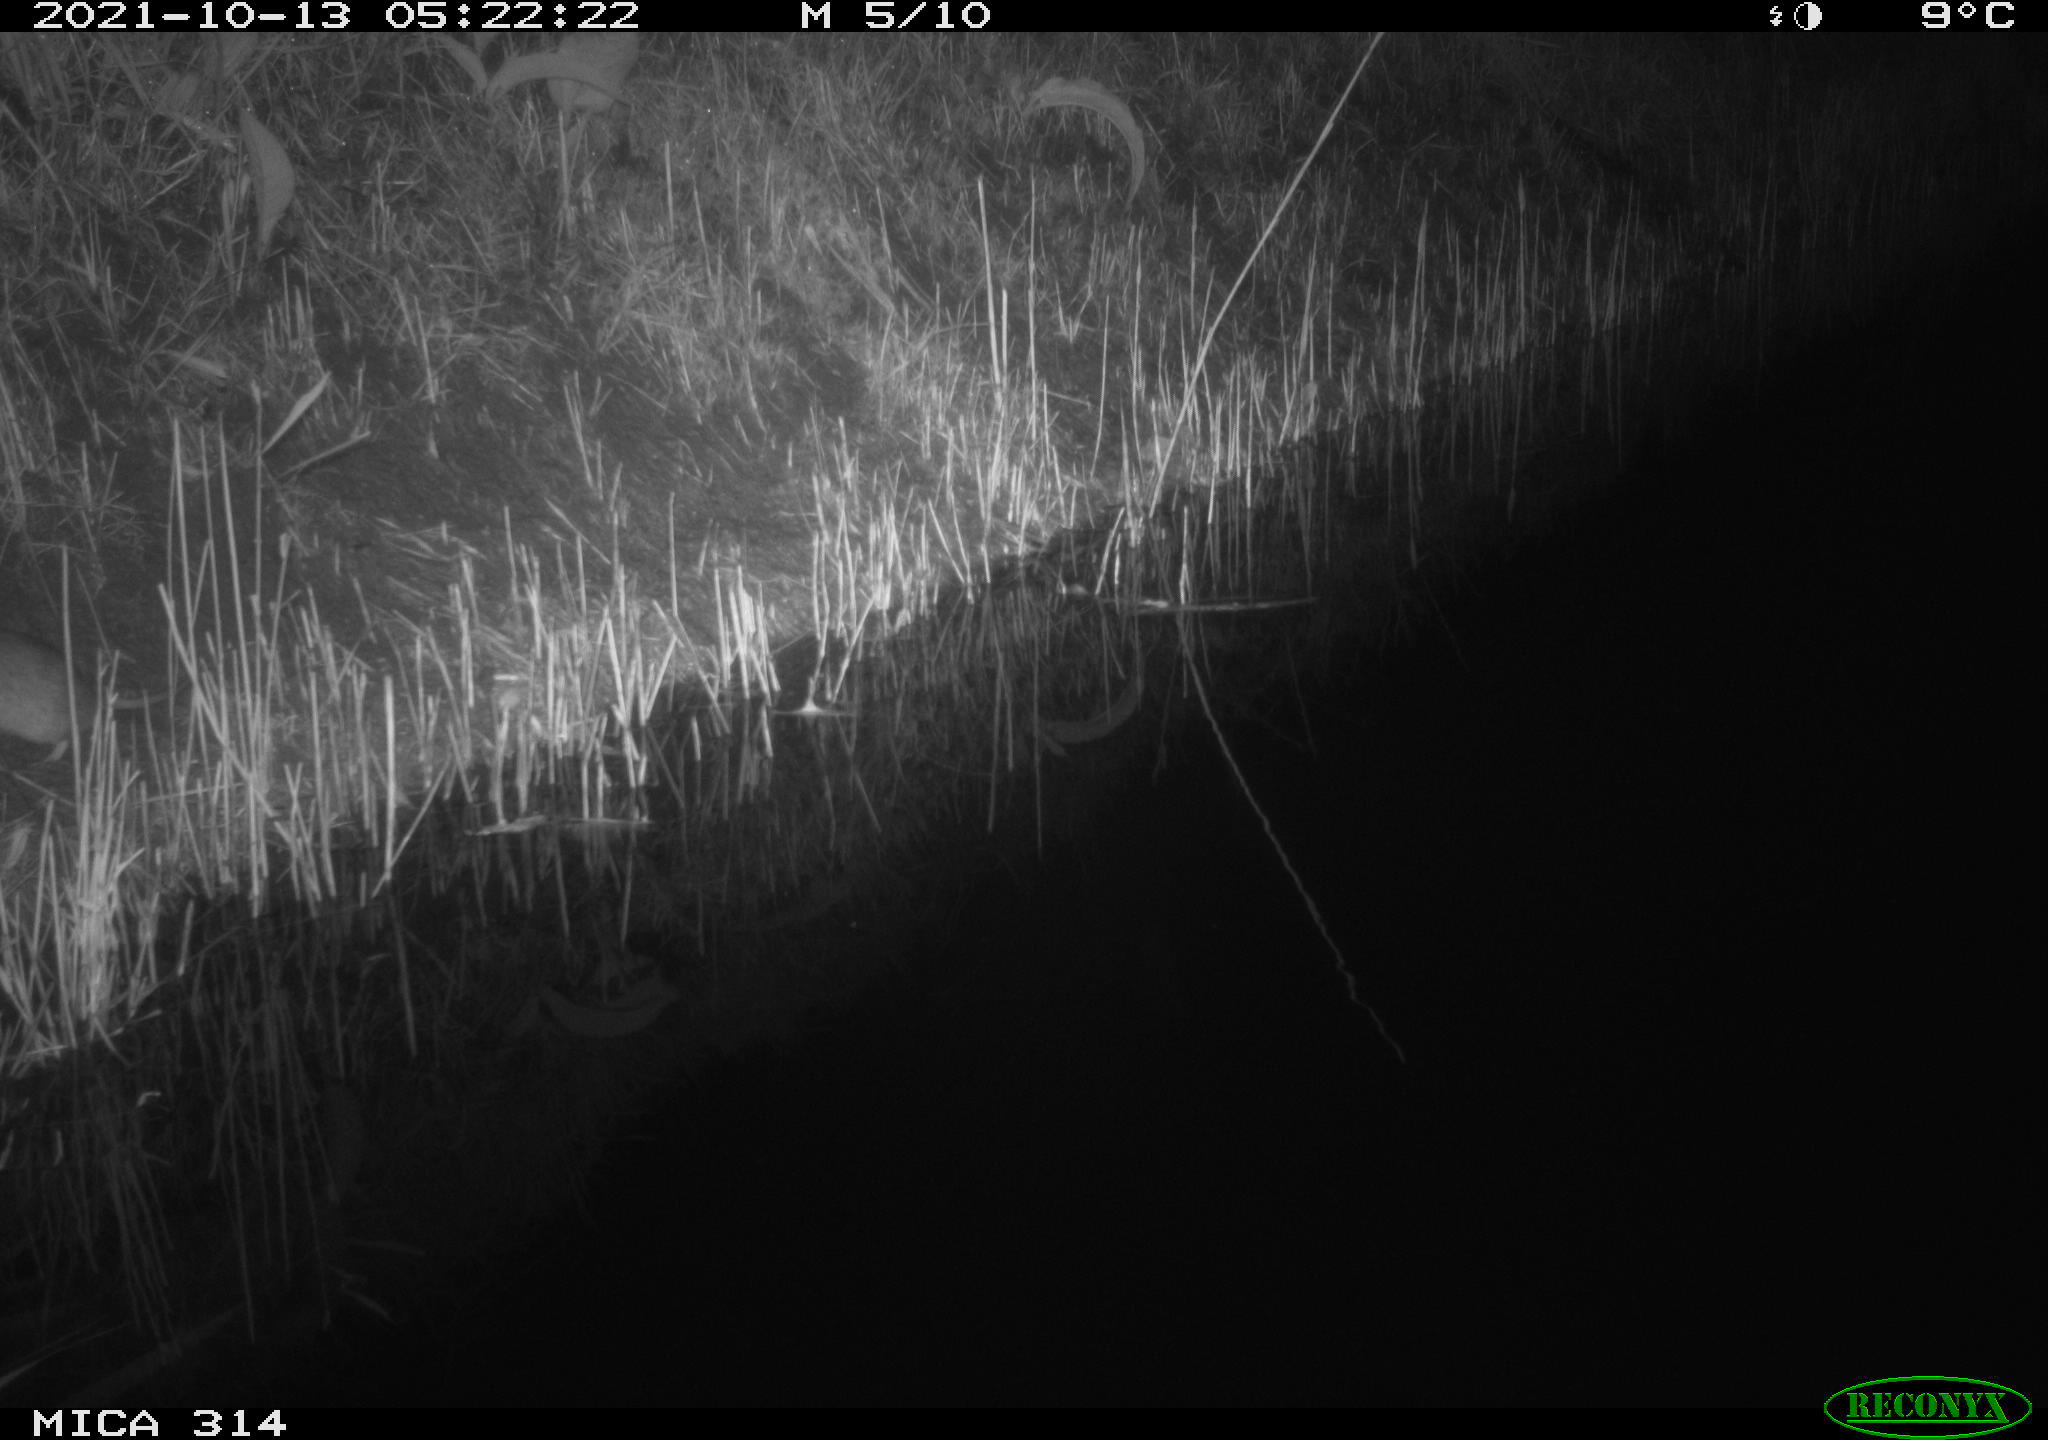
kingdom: Animalia
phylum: Chordata
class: Mammalia
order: Rodentia
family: Muridae
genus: Rattus
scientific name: Rattus norvegicus
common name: Brown rat
